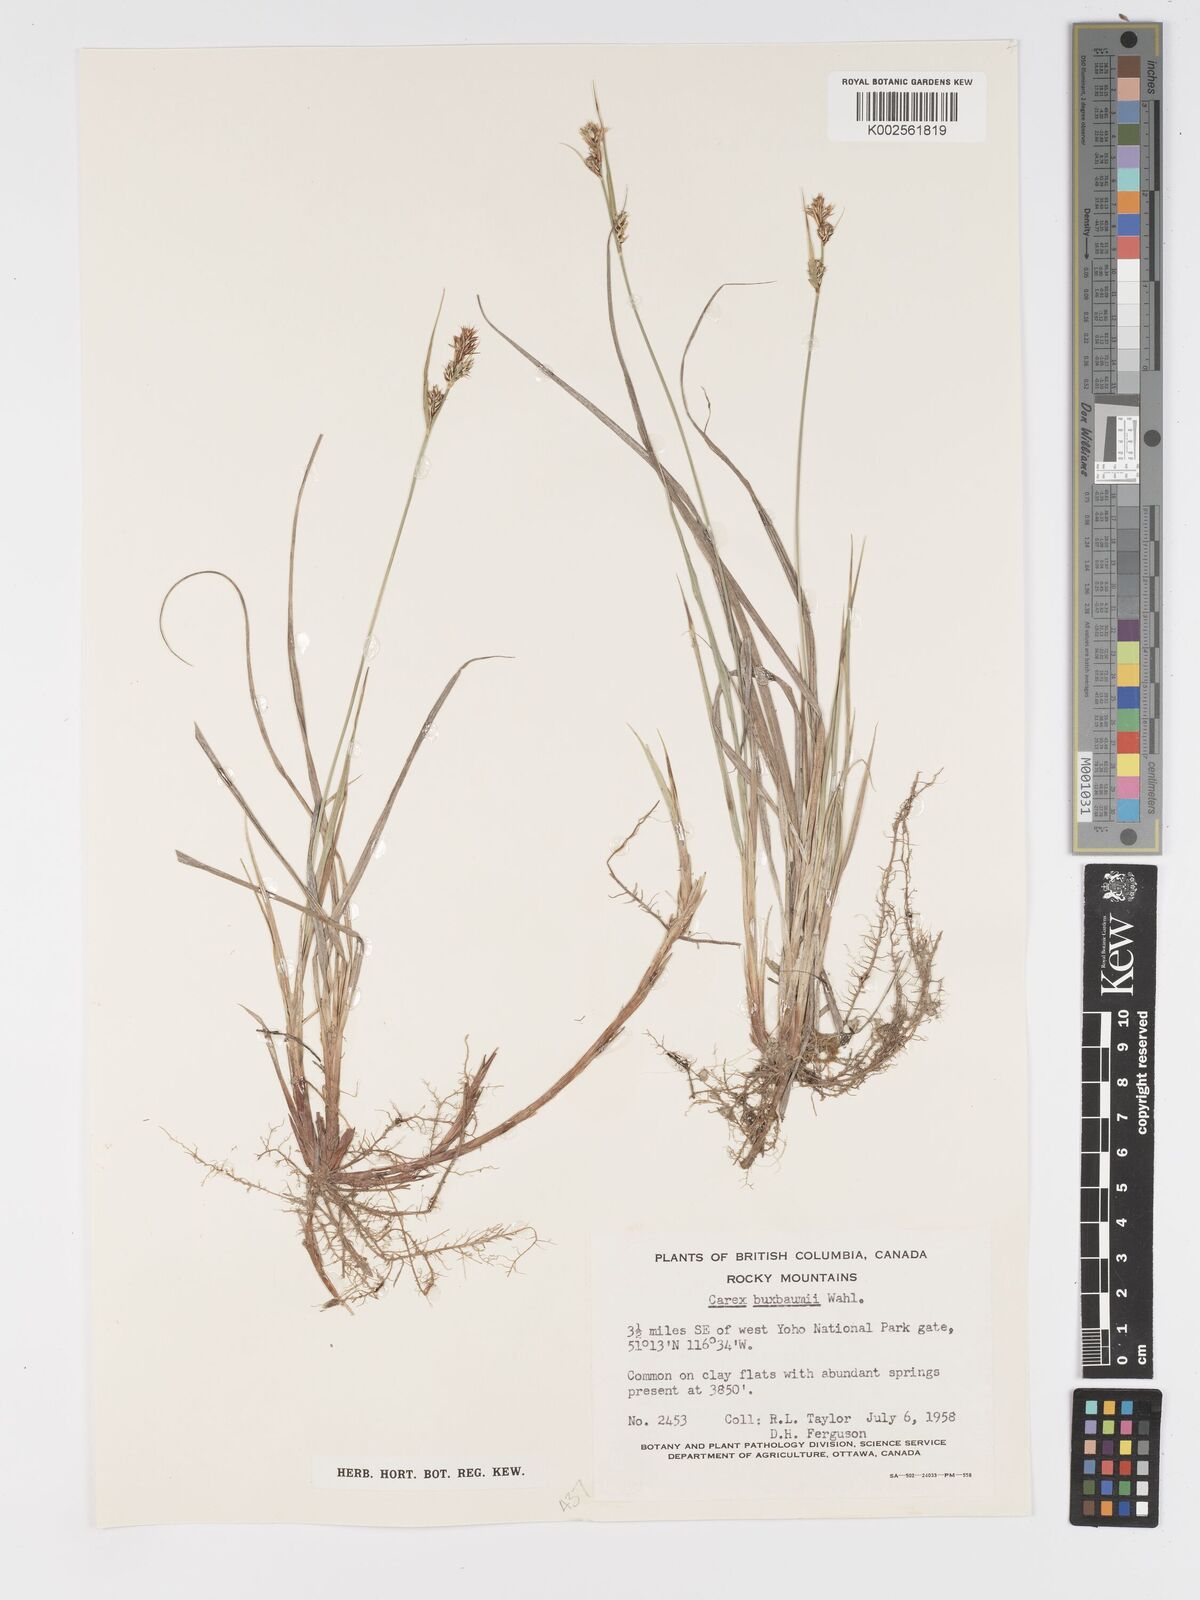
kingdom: Plantae
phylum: Tracheophyta
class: Liliopsida
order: Poales
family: Cyperaceae
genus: Carex
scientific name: Carex buxbaumii
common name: Club sedge
